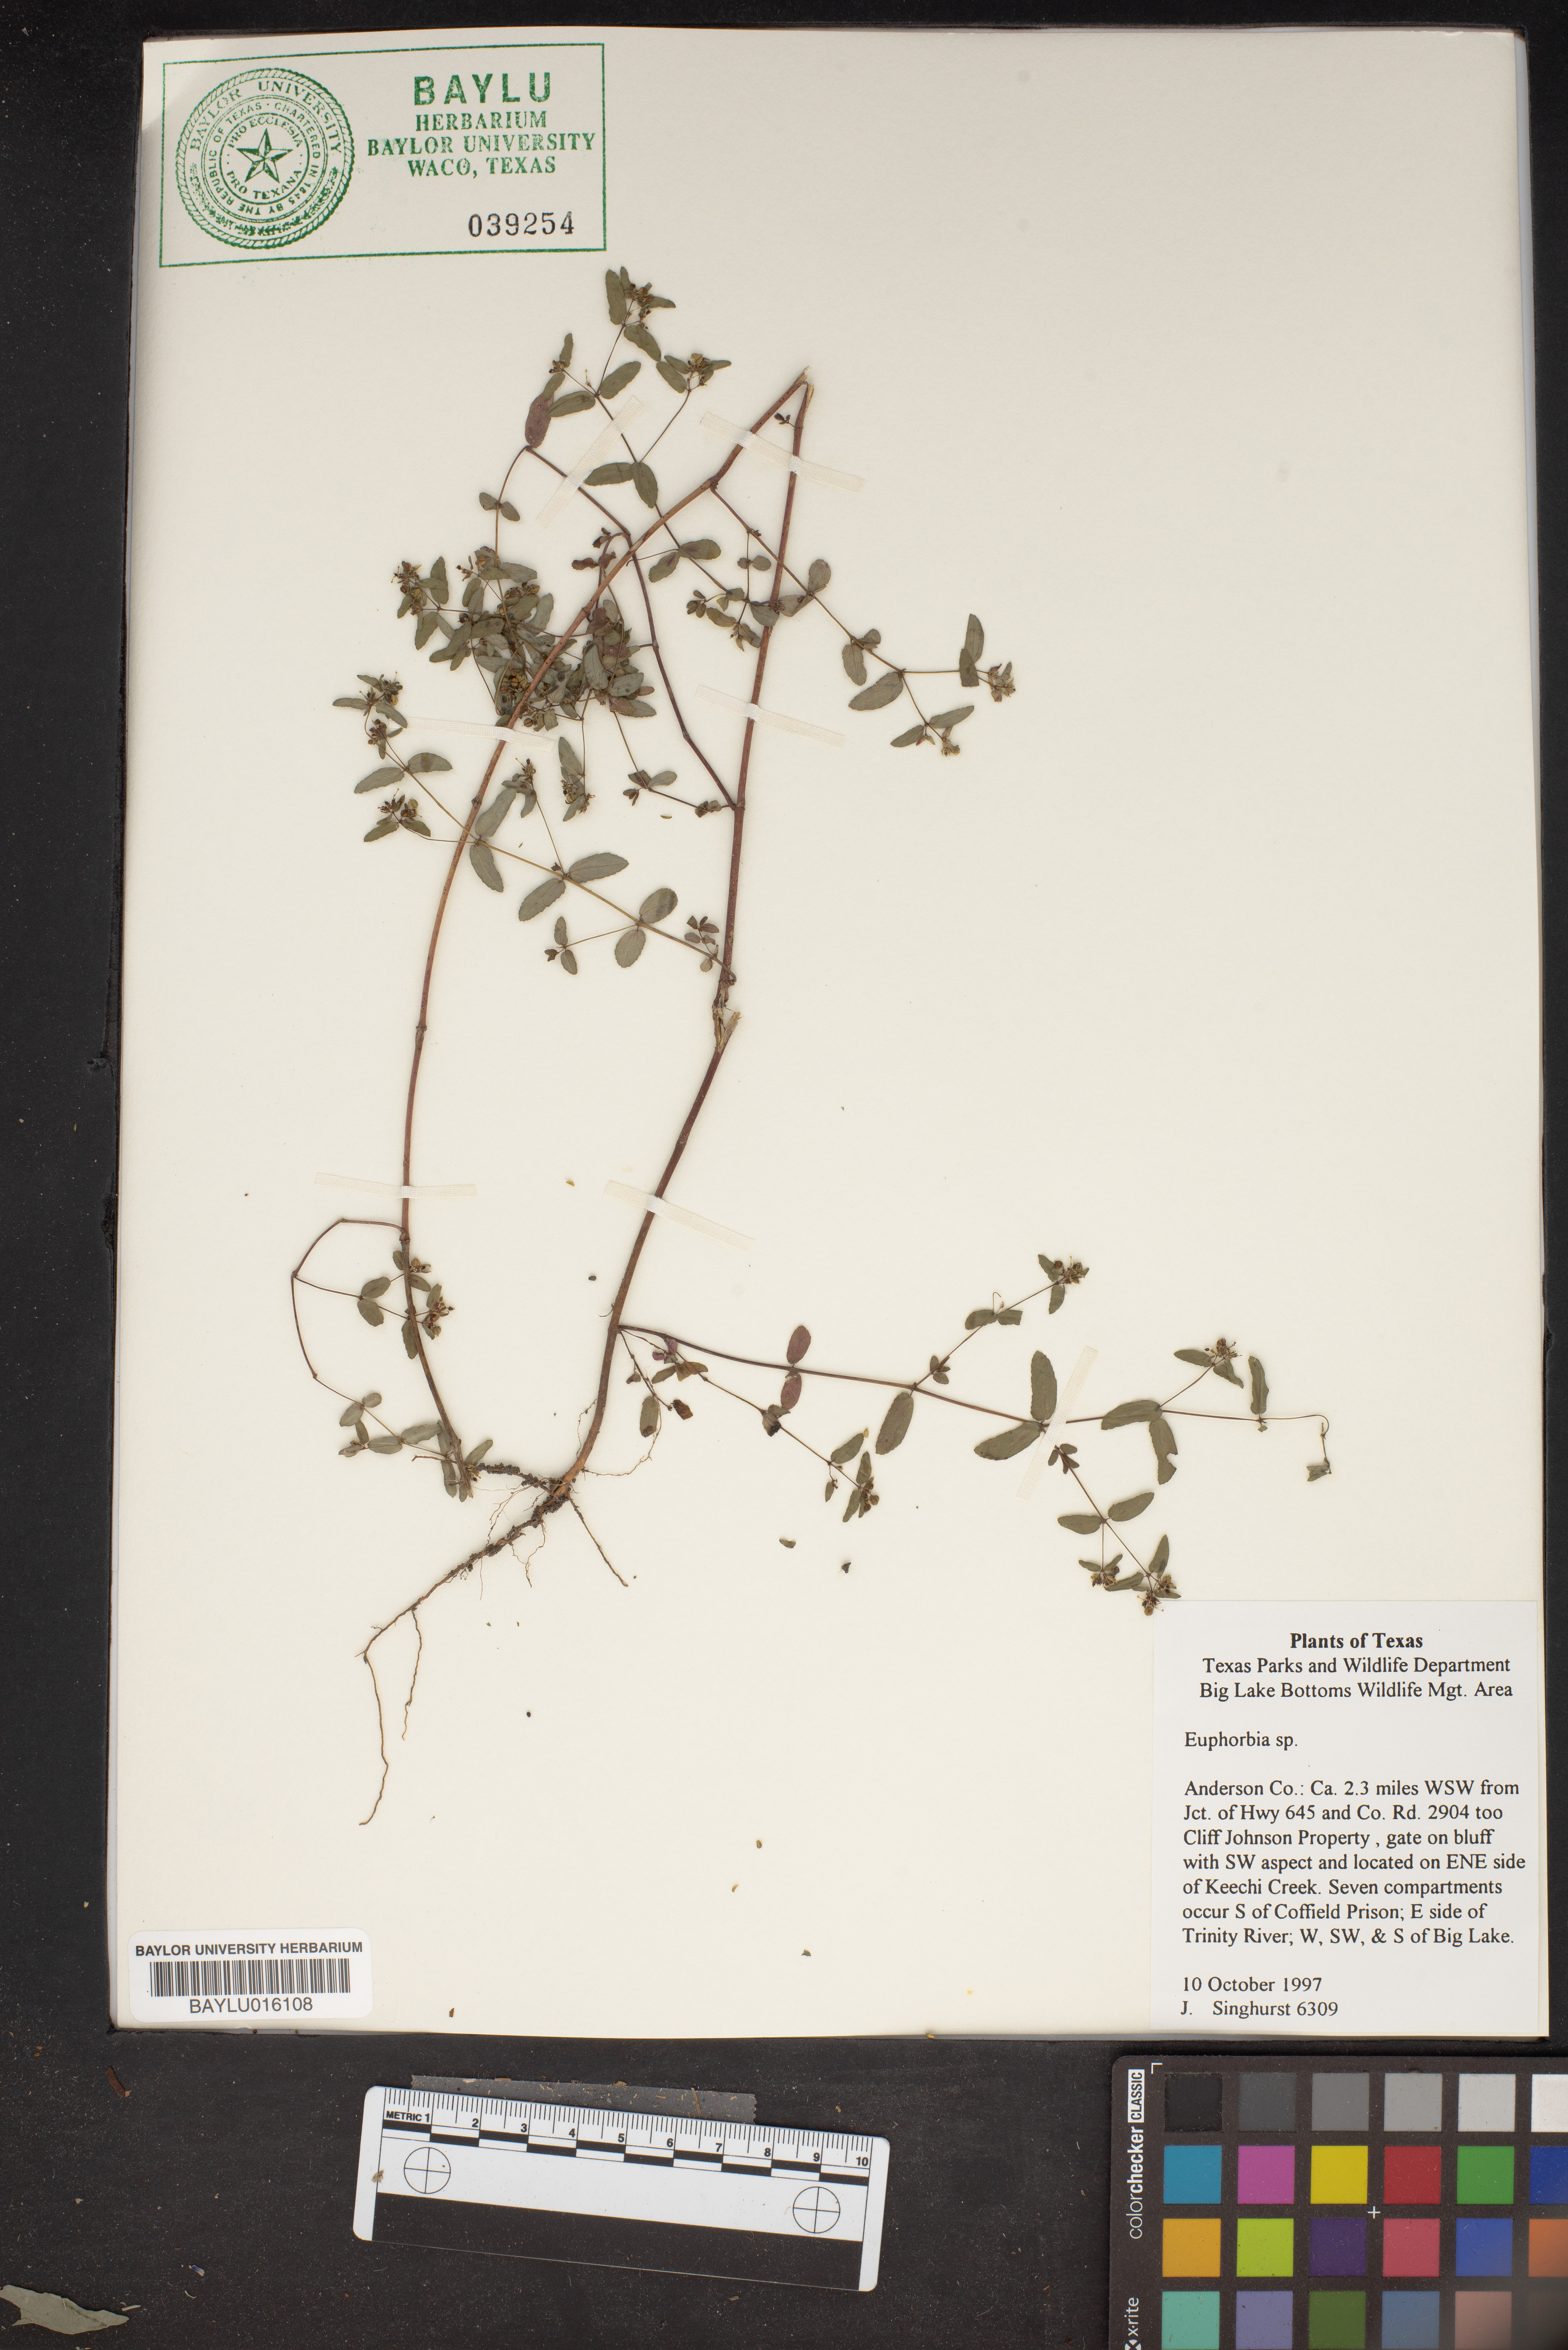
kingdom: Plantae
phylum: Tracheophyta
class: Magnoliopsida
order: Malpighiales
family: Euphorbiaceae
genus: Euphorbia
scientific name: Euphorbia
